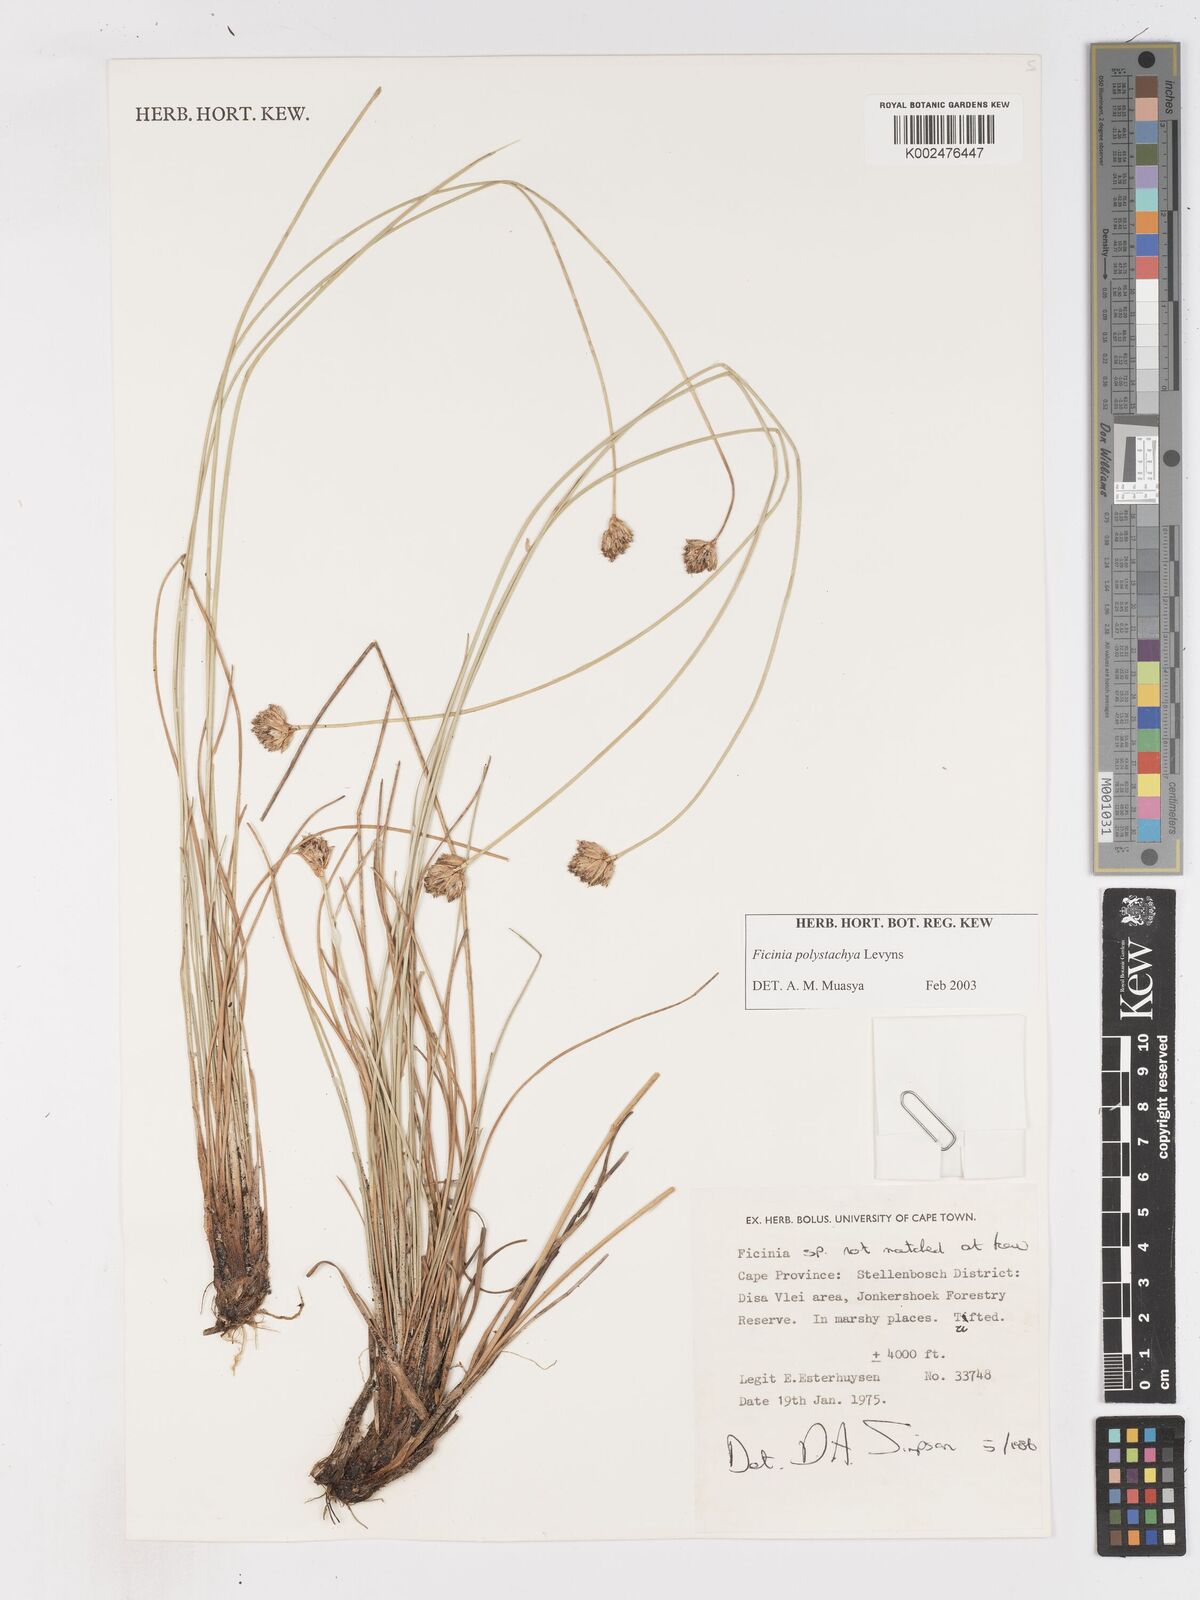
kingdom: Plantae
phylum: Tracheophyta
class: Liliopsida
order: Poales
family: Cyperaceae
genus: Ficinia
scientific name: Ficinia polystachya
